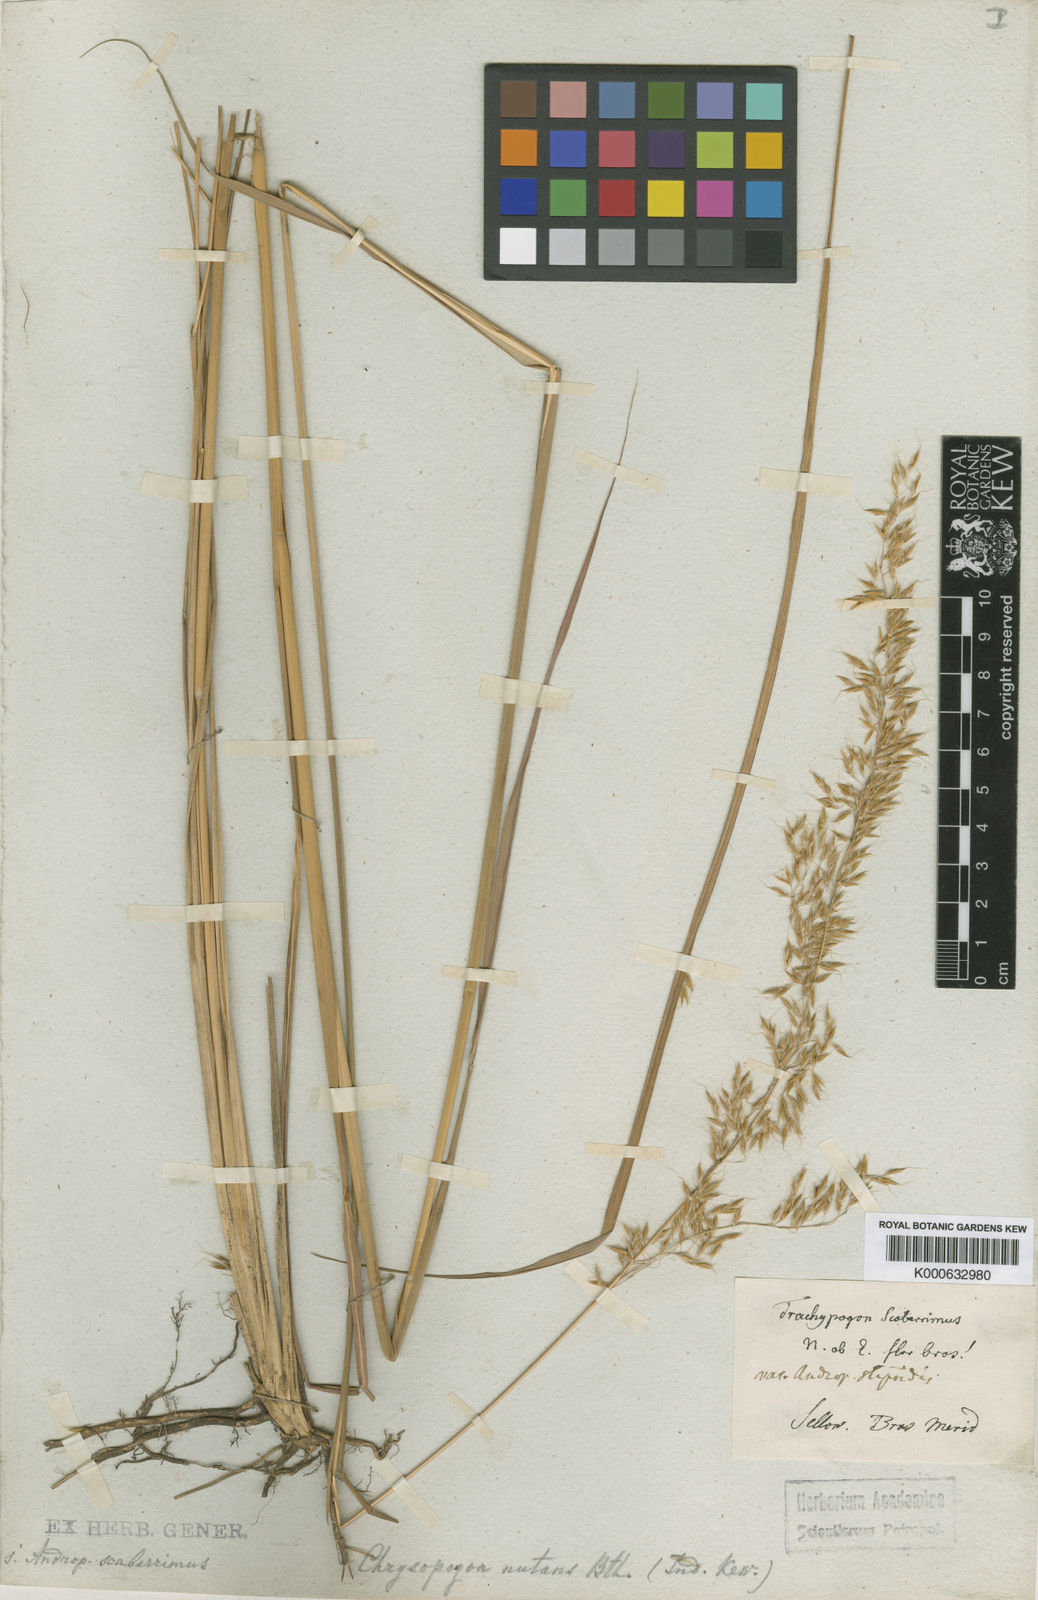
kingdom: Plantae
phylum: Tracheophyta
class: Liliopsida
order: Poales
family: Poaceae
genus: Sorghastrum
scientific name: Sorghastrum setosum
